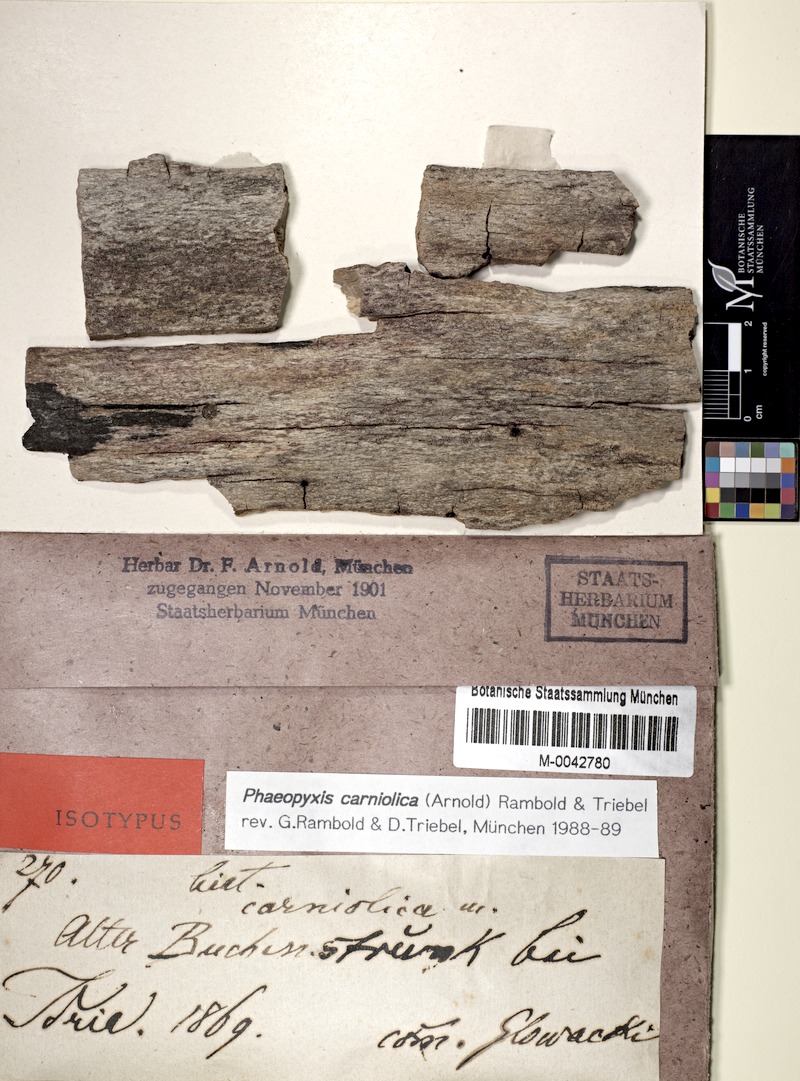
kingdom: Fungi
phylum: Ascomycota
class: Lecanoromycetes
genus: Bachmanniomyces
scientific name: Bachmanniomyces carniolicus
